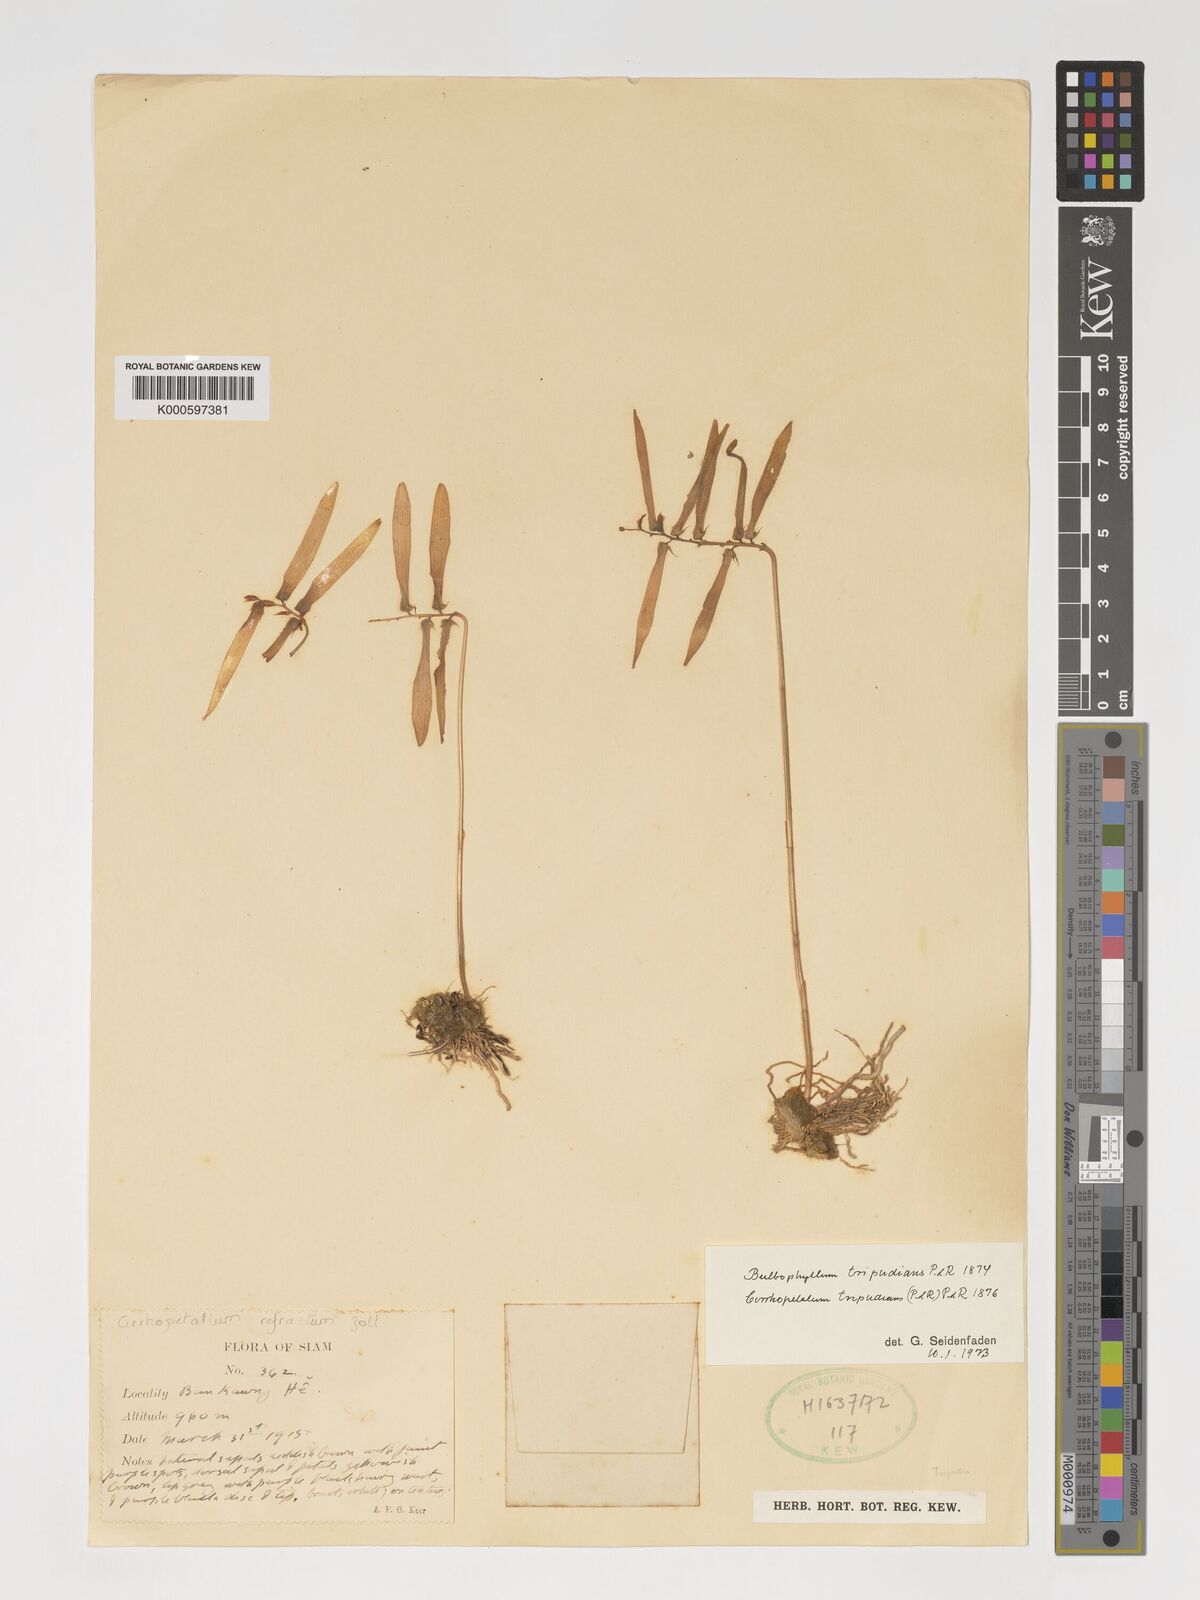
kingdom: Plantae
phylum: Tracheophyta
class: Liliopsida
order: Asparagales
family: Orchidaceae
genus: Bulbophyllum
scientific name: Bulbophyllum tripudians
